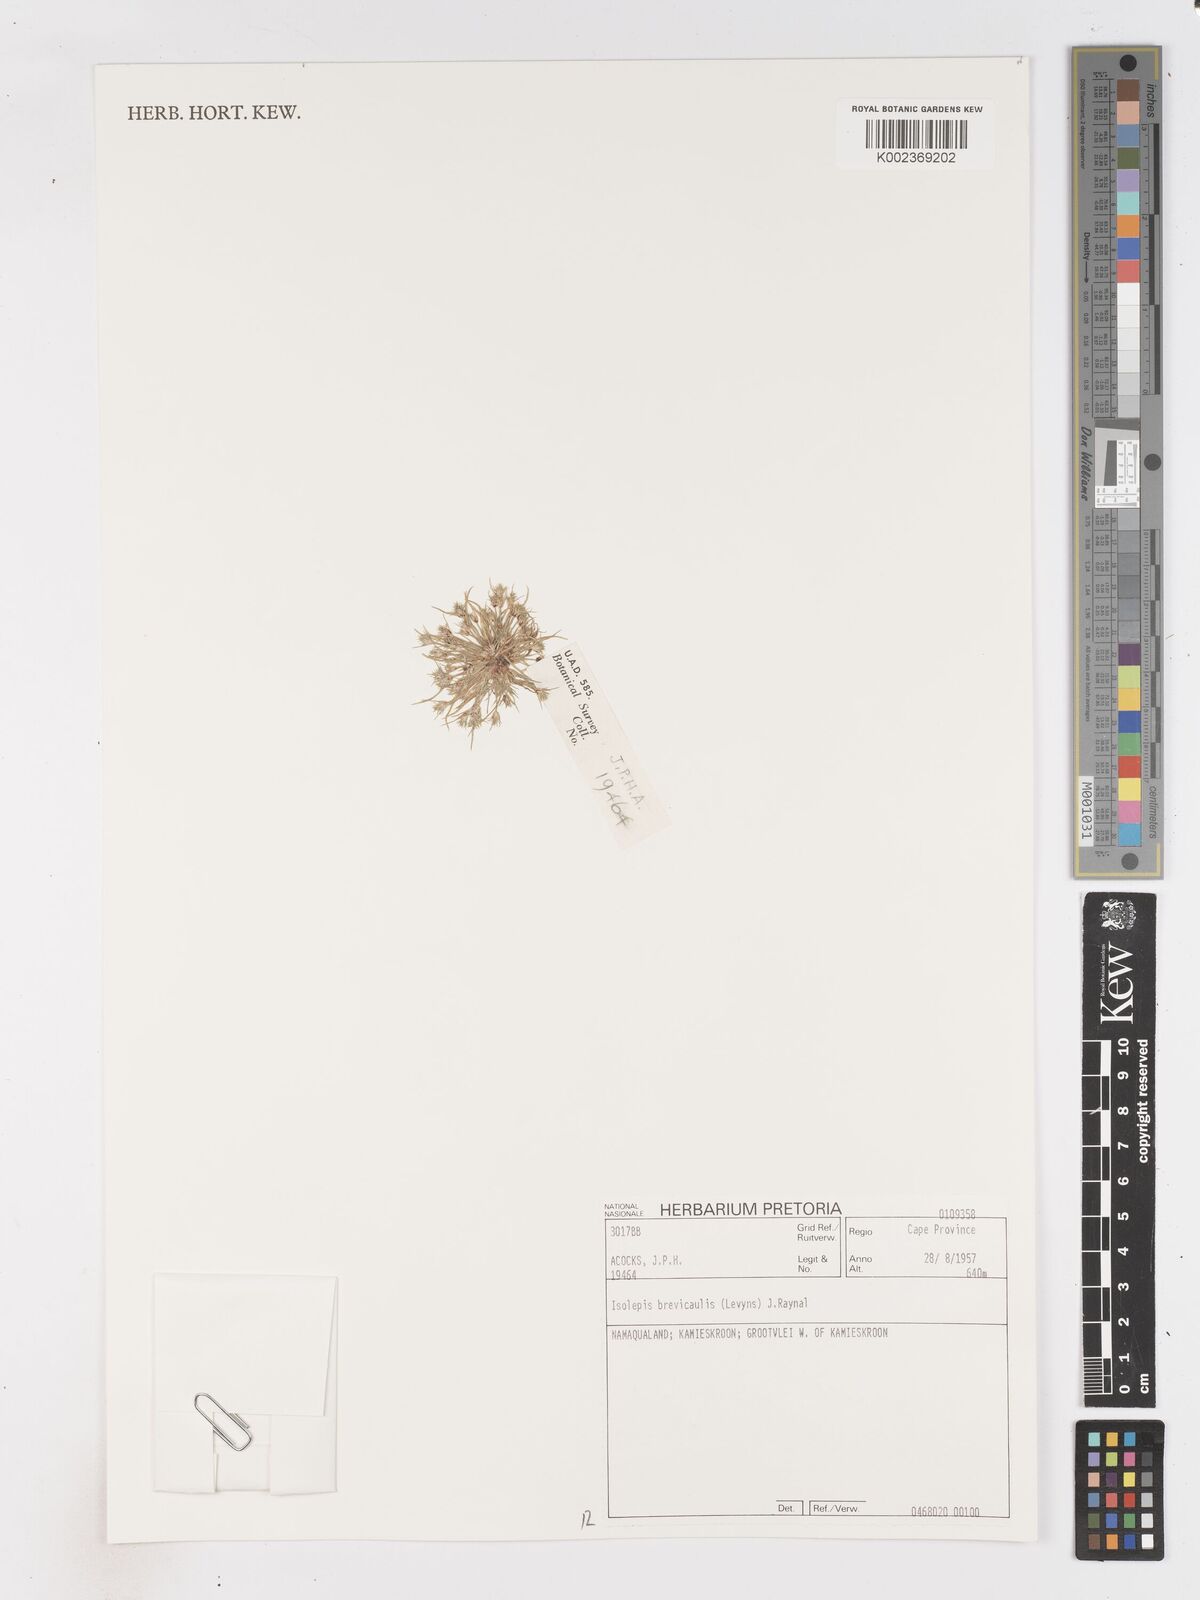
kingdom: Plantae
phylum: Tracheophyta
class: Liliopsida
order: Poales
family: Cyperaceae
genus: Isolepis
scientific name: Isolepis brevicaulis
